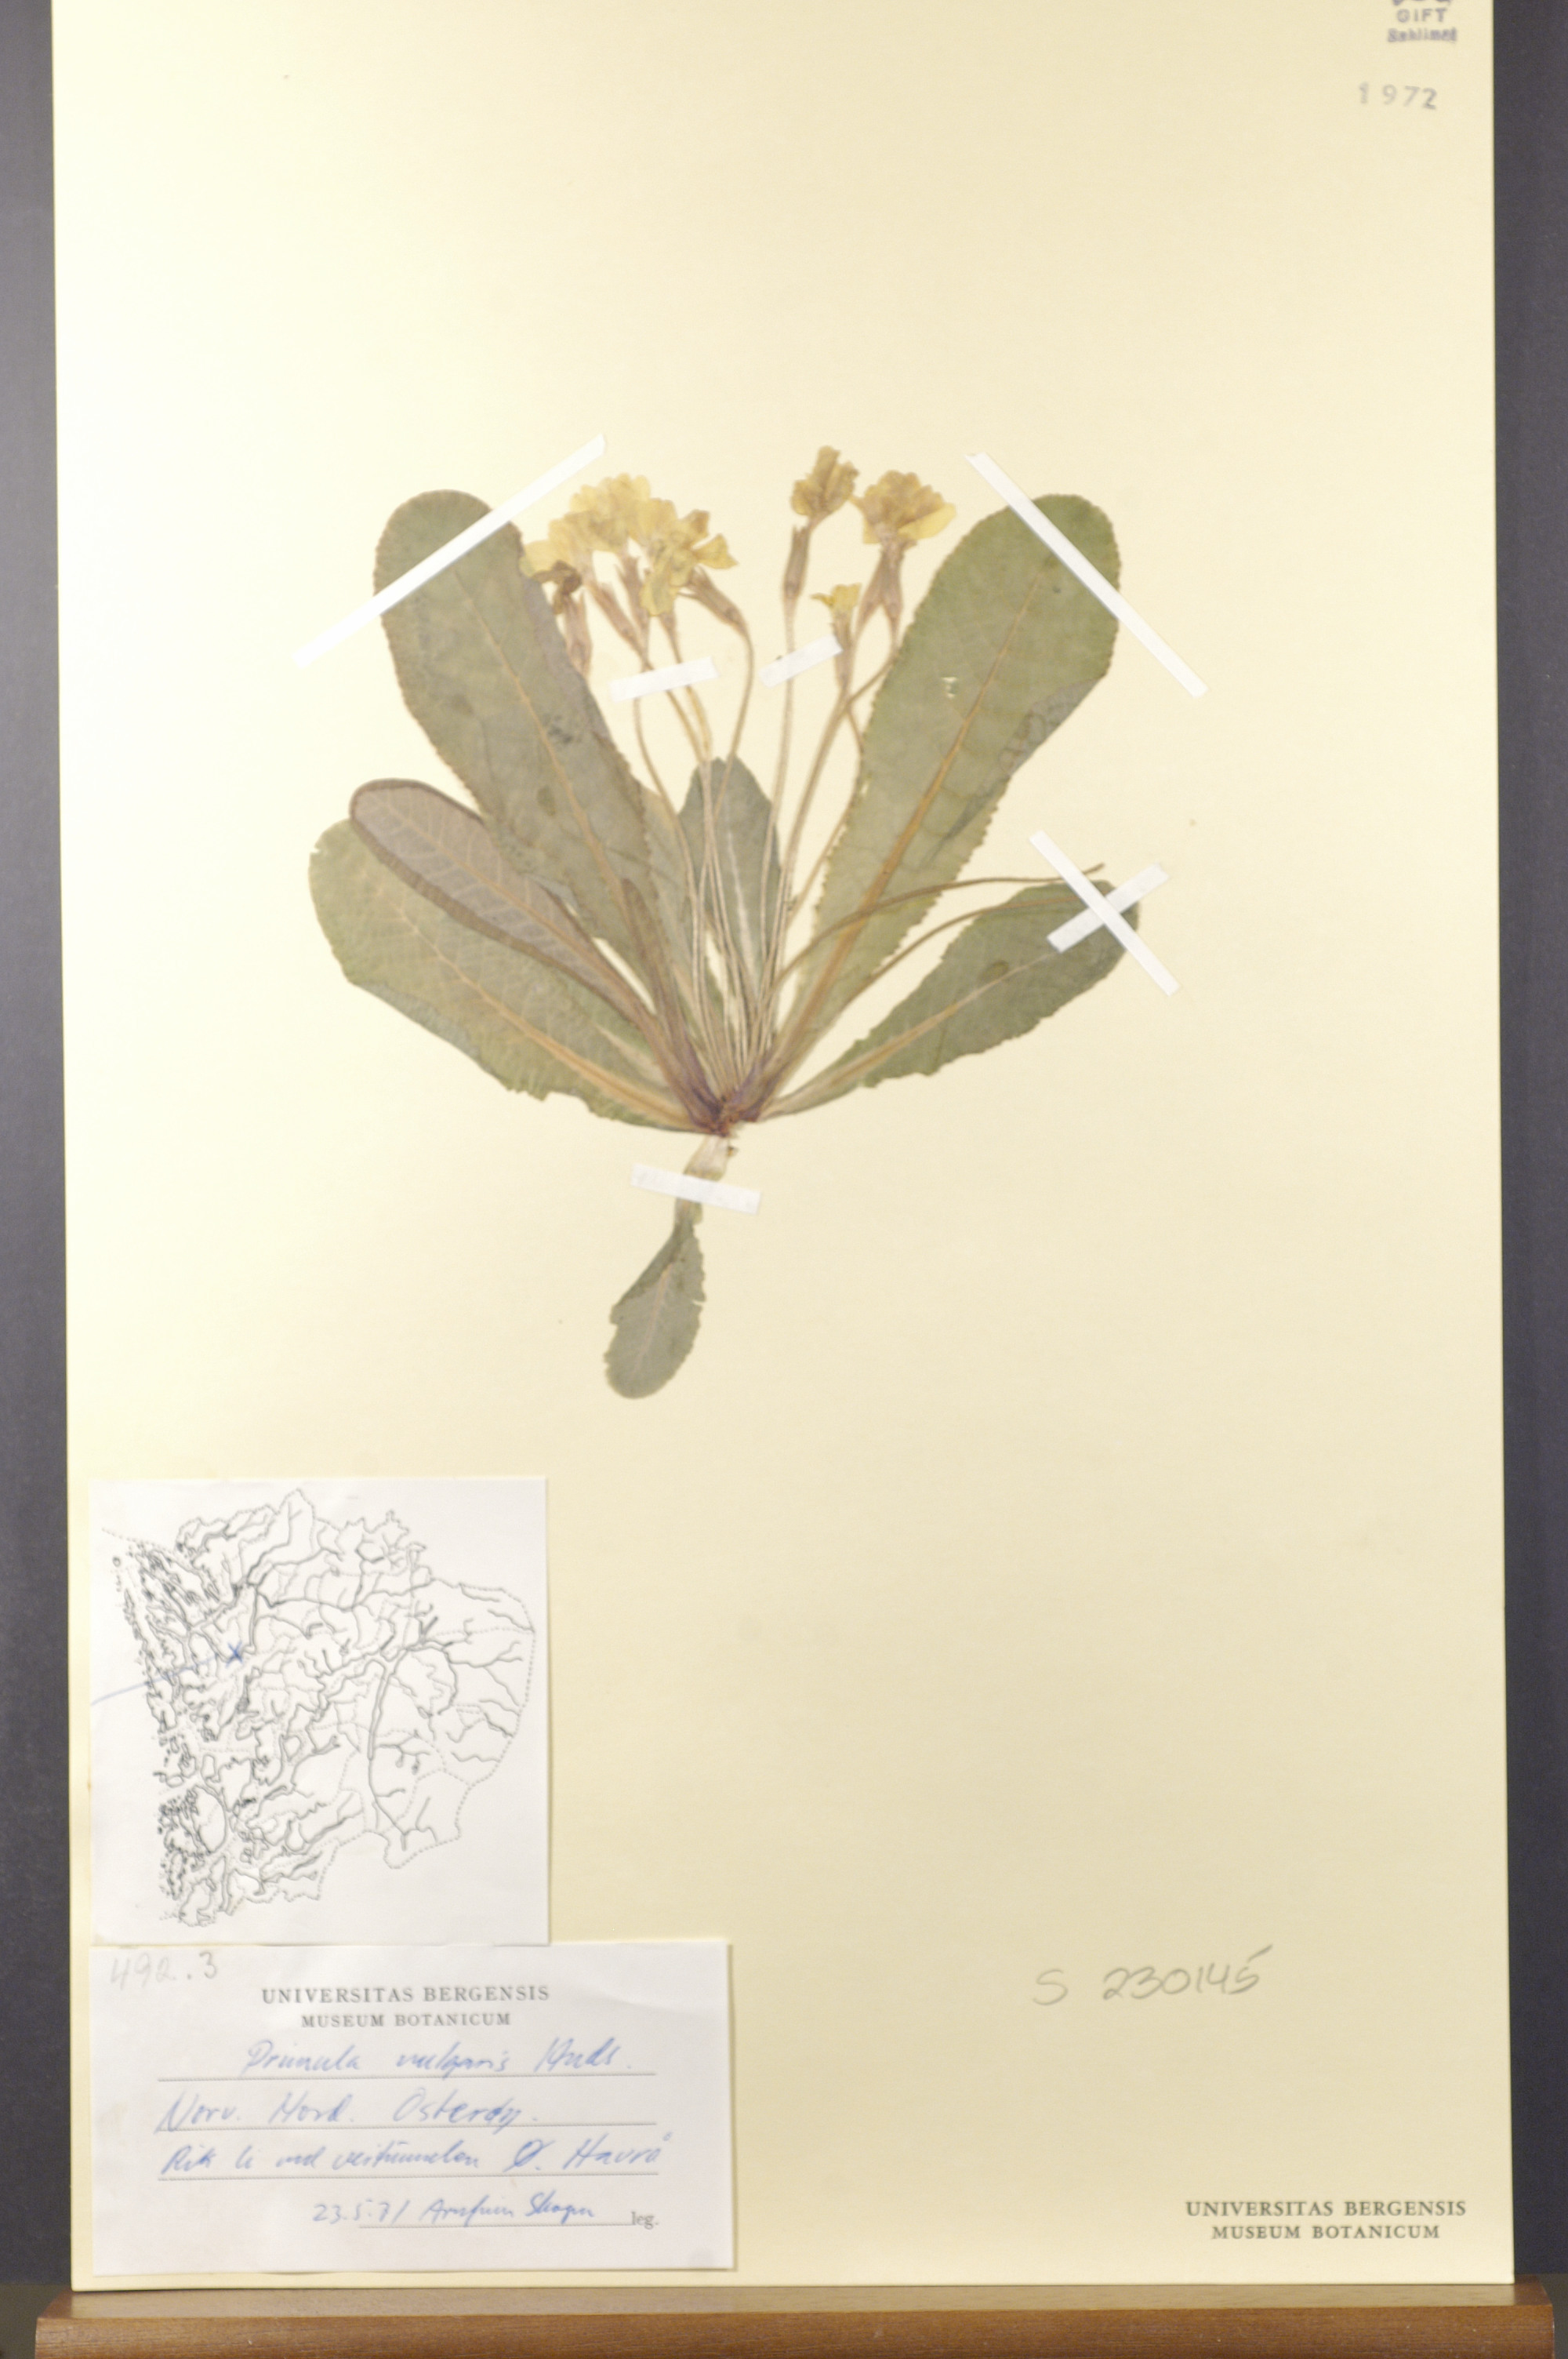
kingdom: Plantae
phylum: Tracheophyta
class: Magnoliopsida
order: Ericales
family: Primulaceae
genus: Primula
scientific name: Primula vulgaris
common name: Primrose
